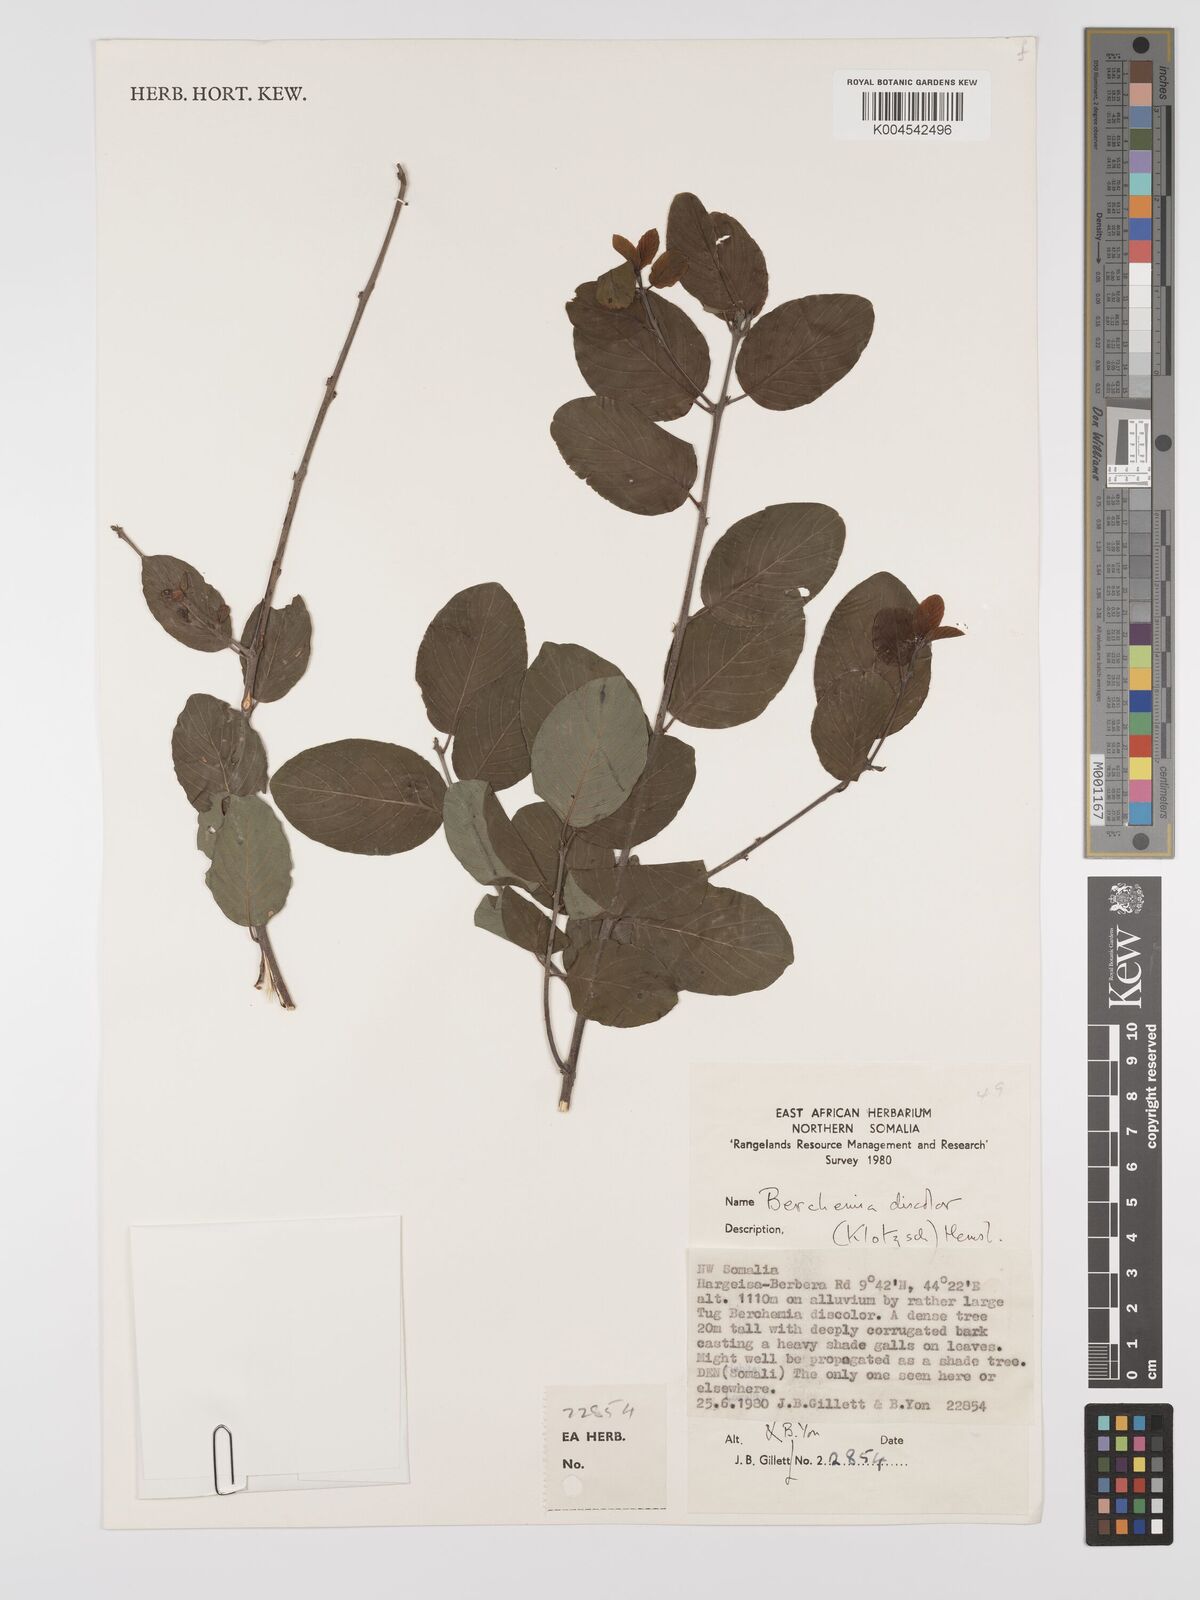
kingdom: Plantae
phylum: Tracheophyta
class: Magnoliopsida
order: Rosales
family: Rhamnaceae
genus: Phyllogeiton
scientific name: Phyllogeiton discolor
